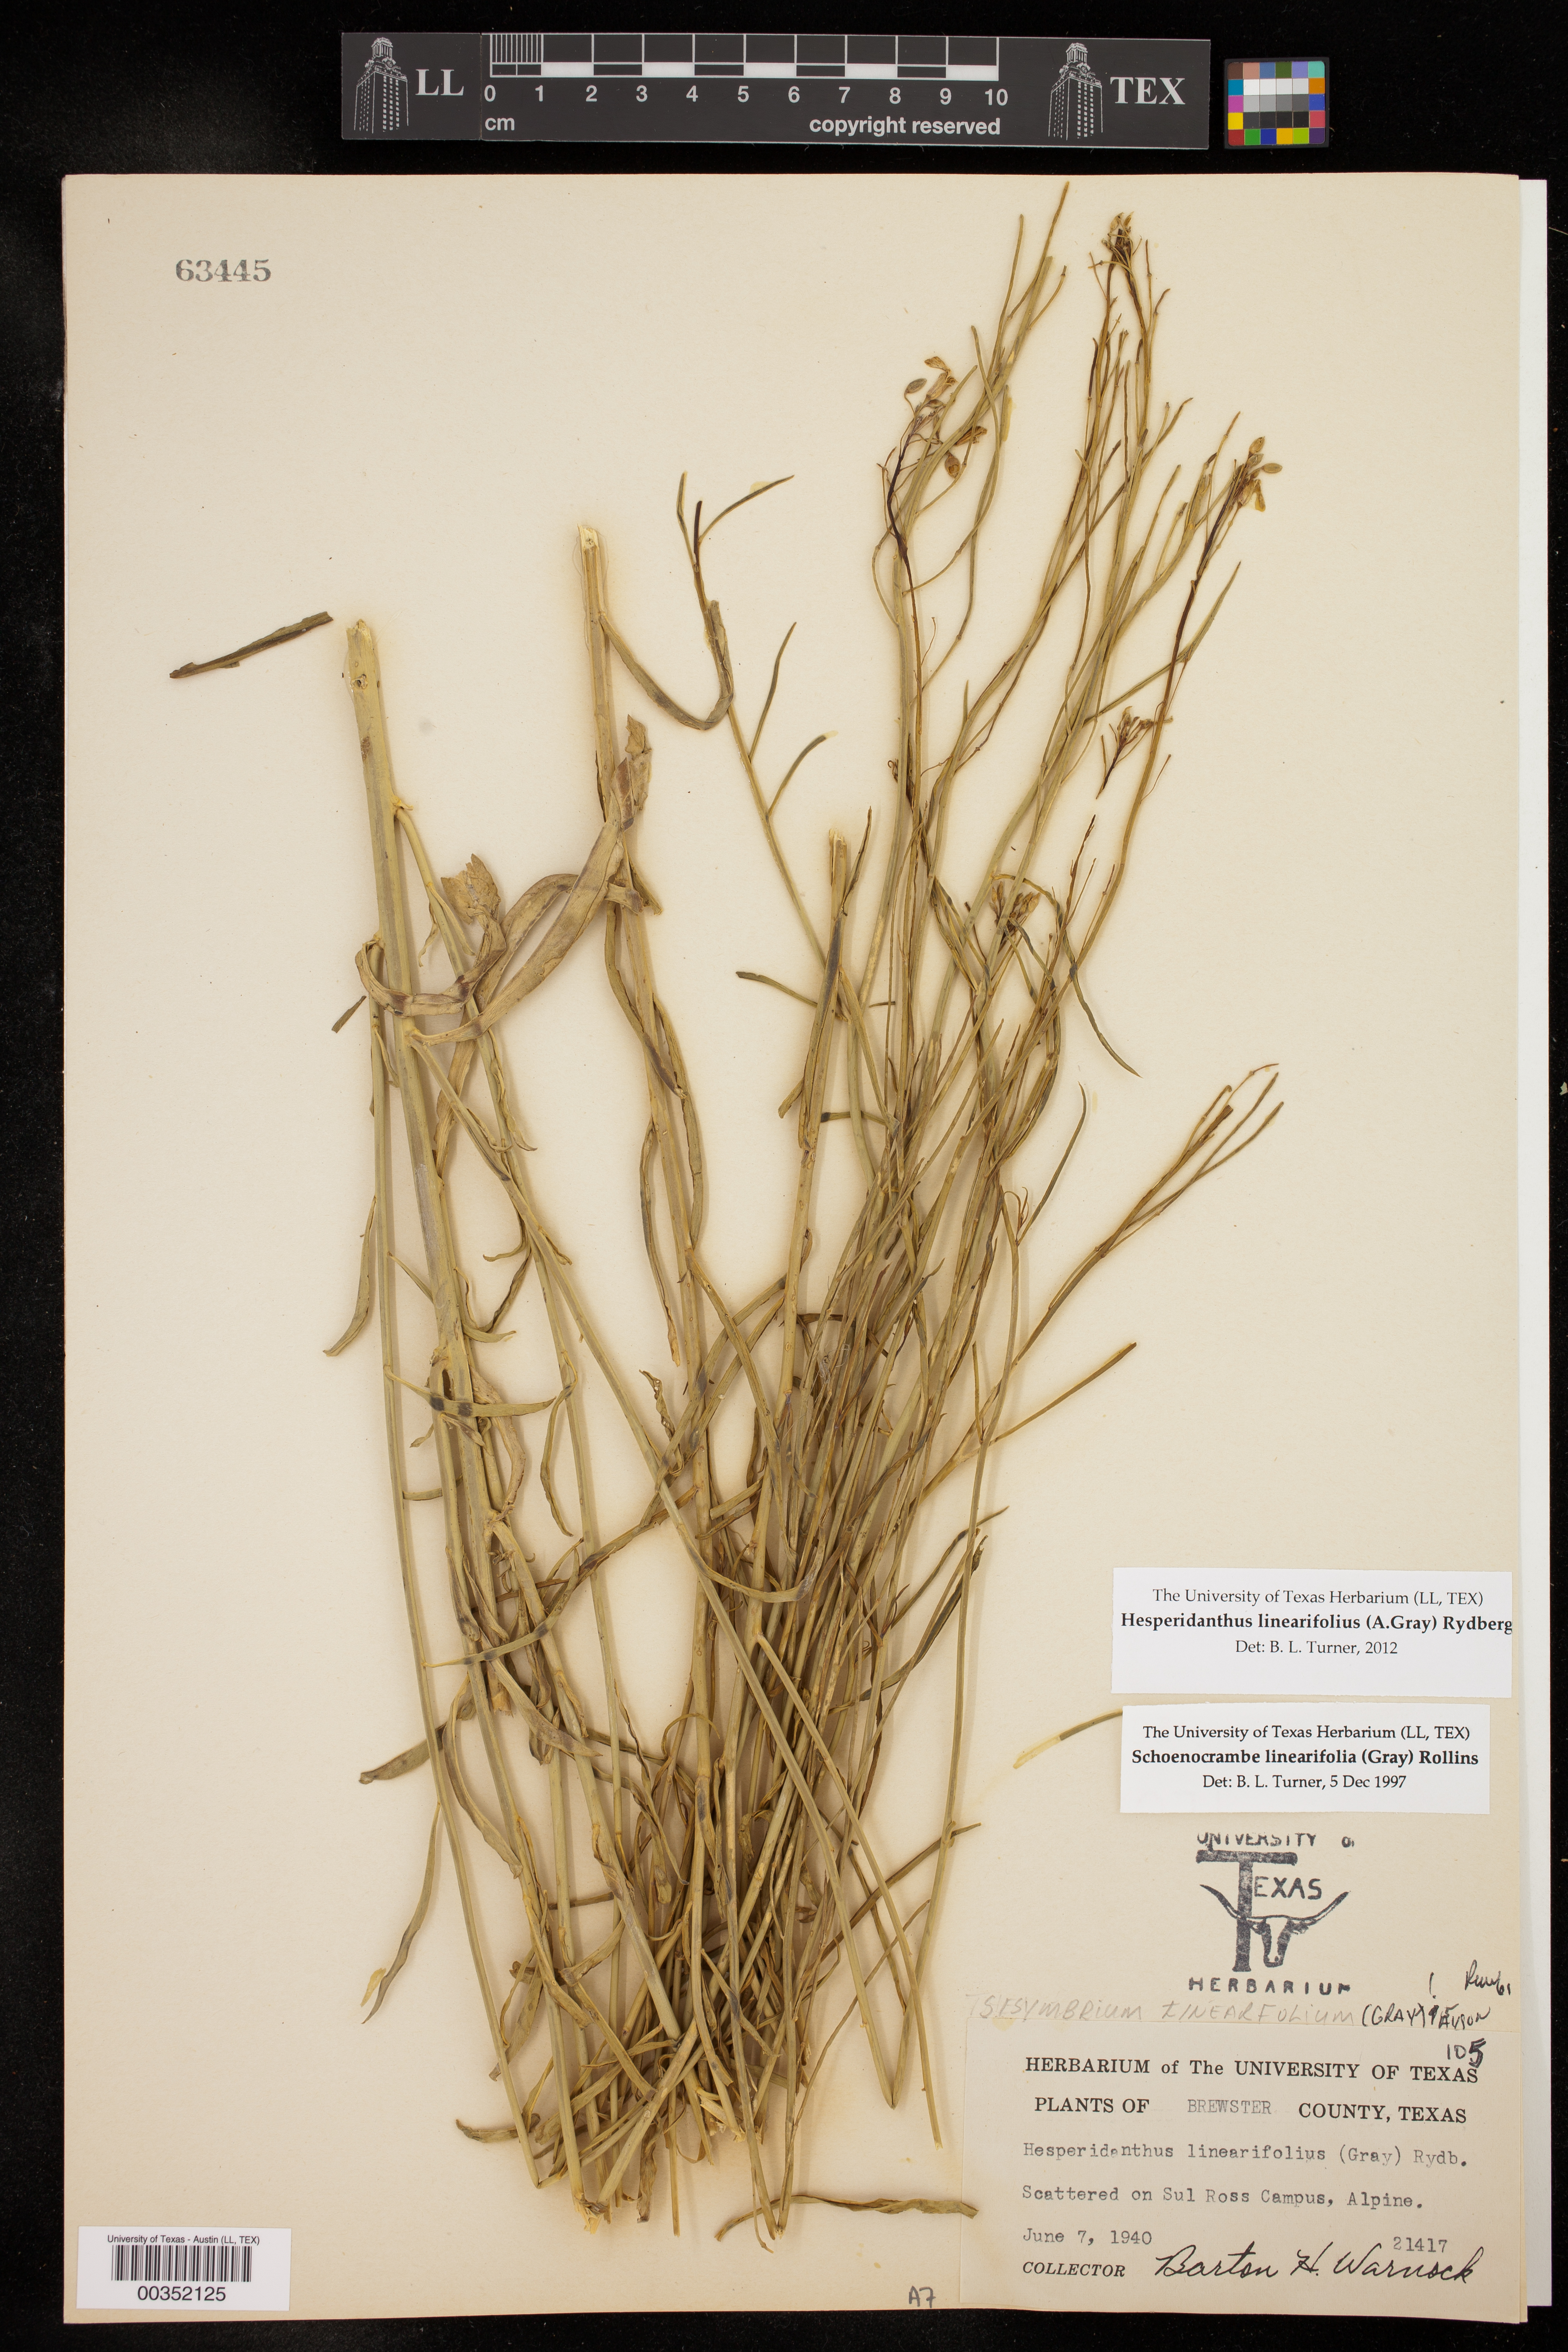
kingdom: Plantae
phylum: Tracheophyta
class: Magnoliopsida
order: Brassicales
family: Brassicaceae
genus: Hesperidanthus
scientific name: Hesperidanthus linearifolius
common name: Slim-leaf plains mustard
